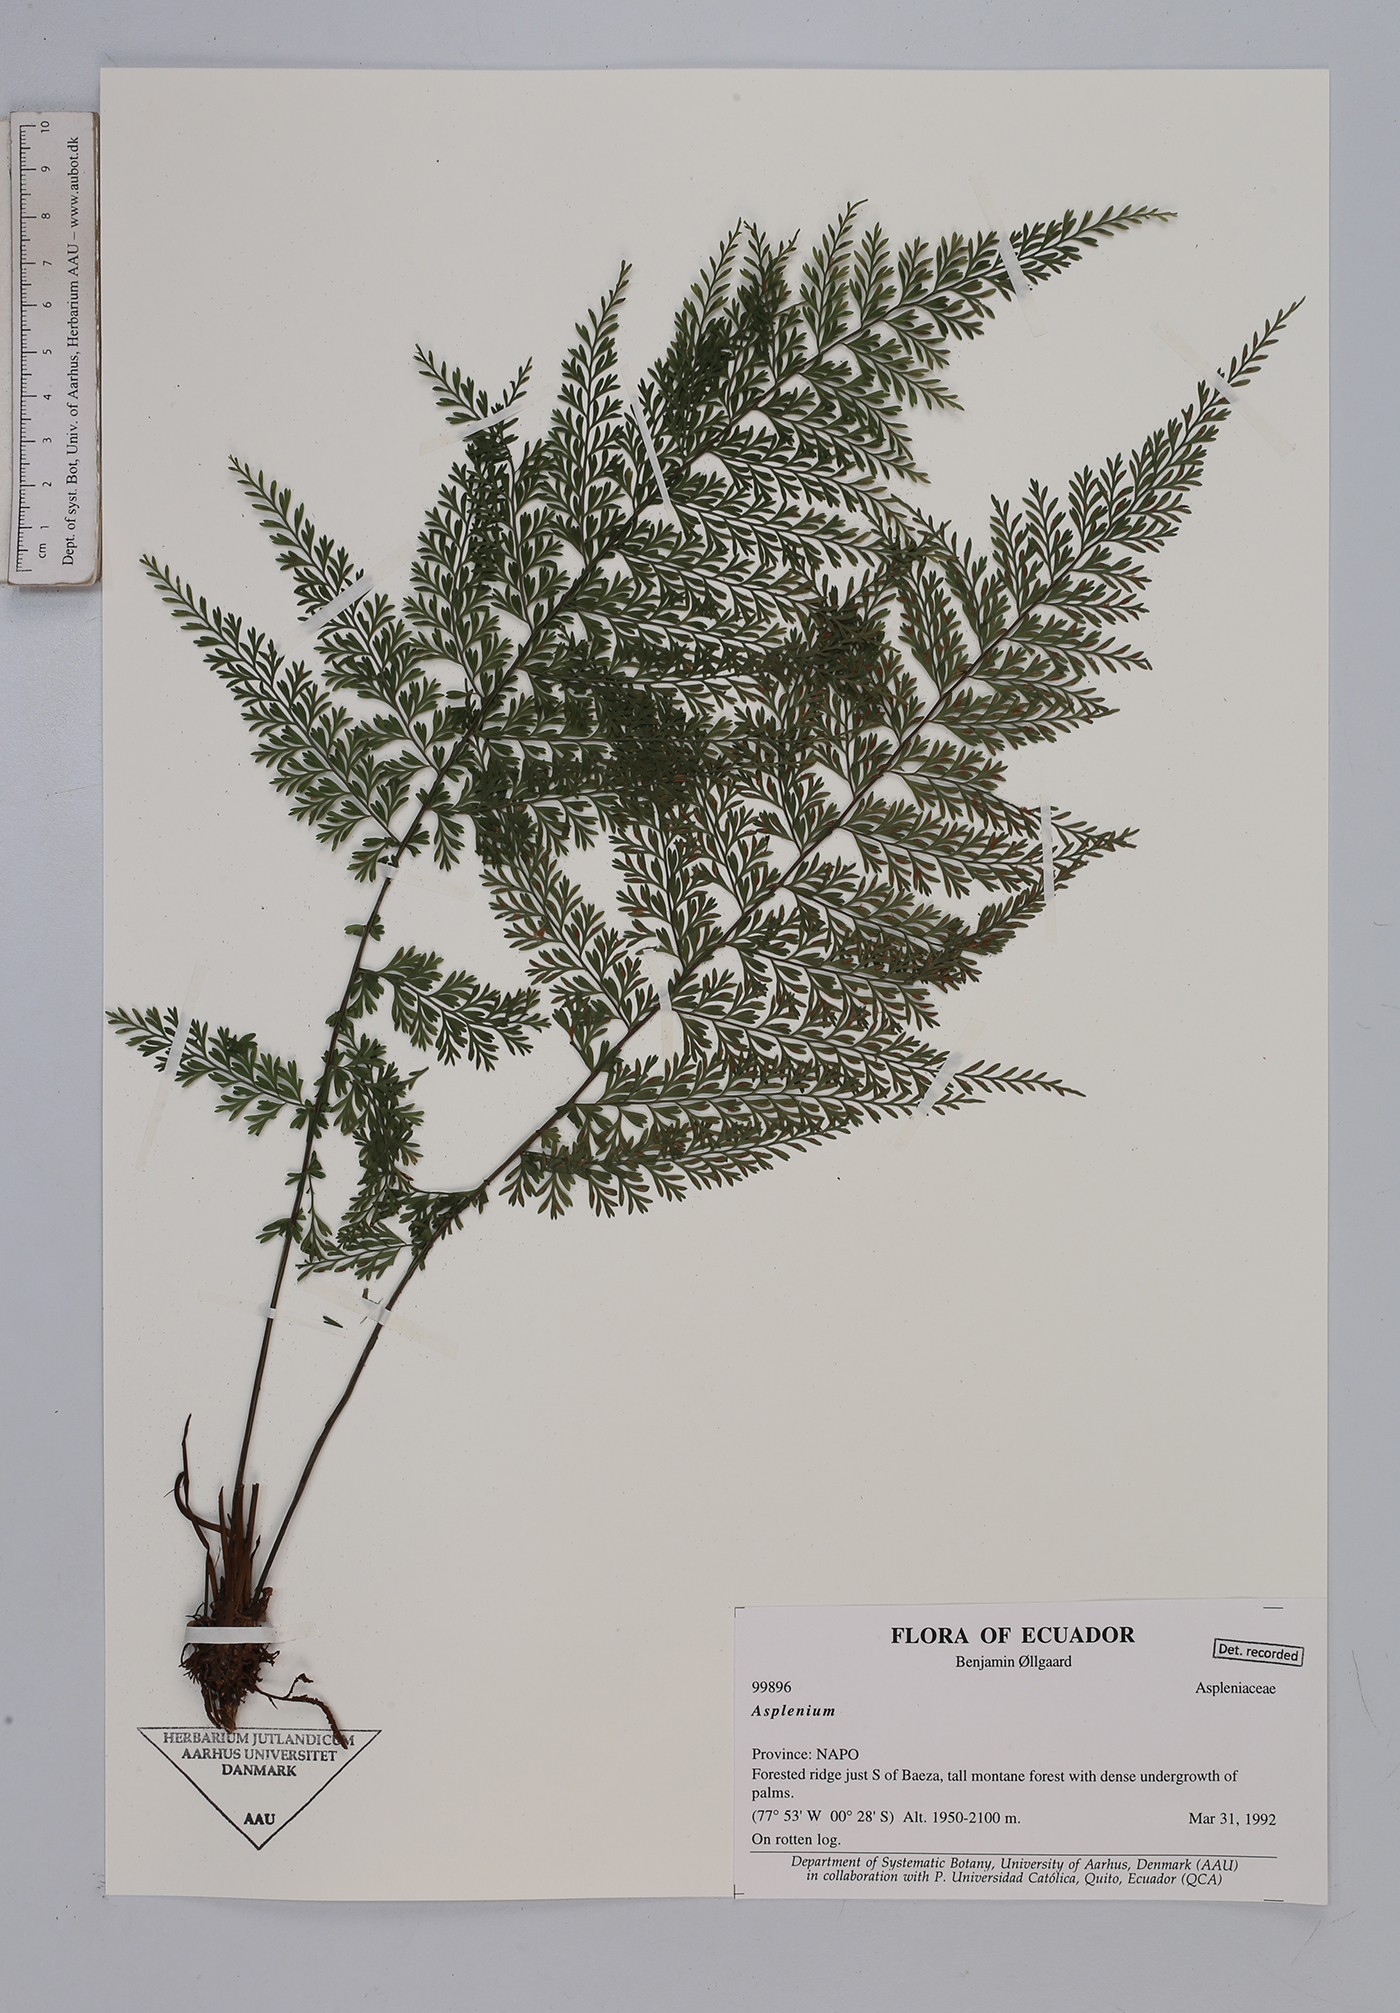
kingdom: Plantae
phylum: Tracheophyta
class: Polypodiopsida
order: Polypodiales
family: Aspleniaceae
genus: Asplenium
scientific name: Asplenium
